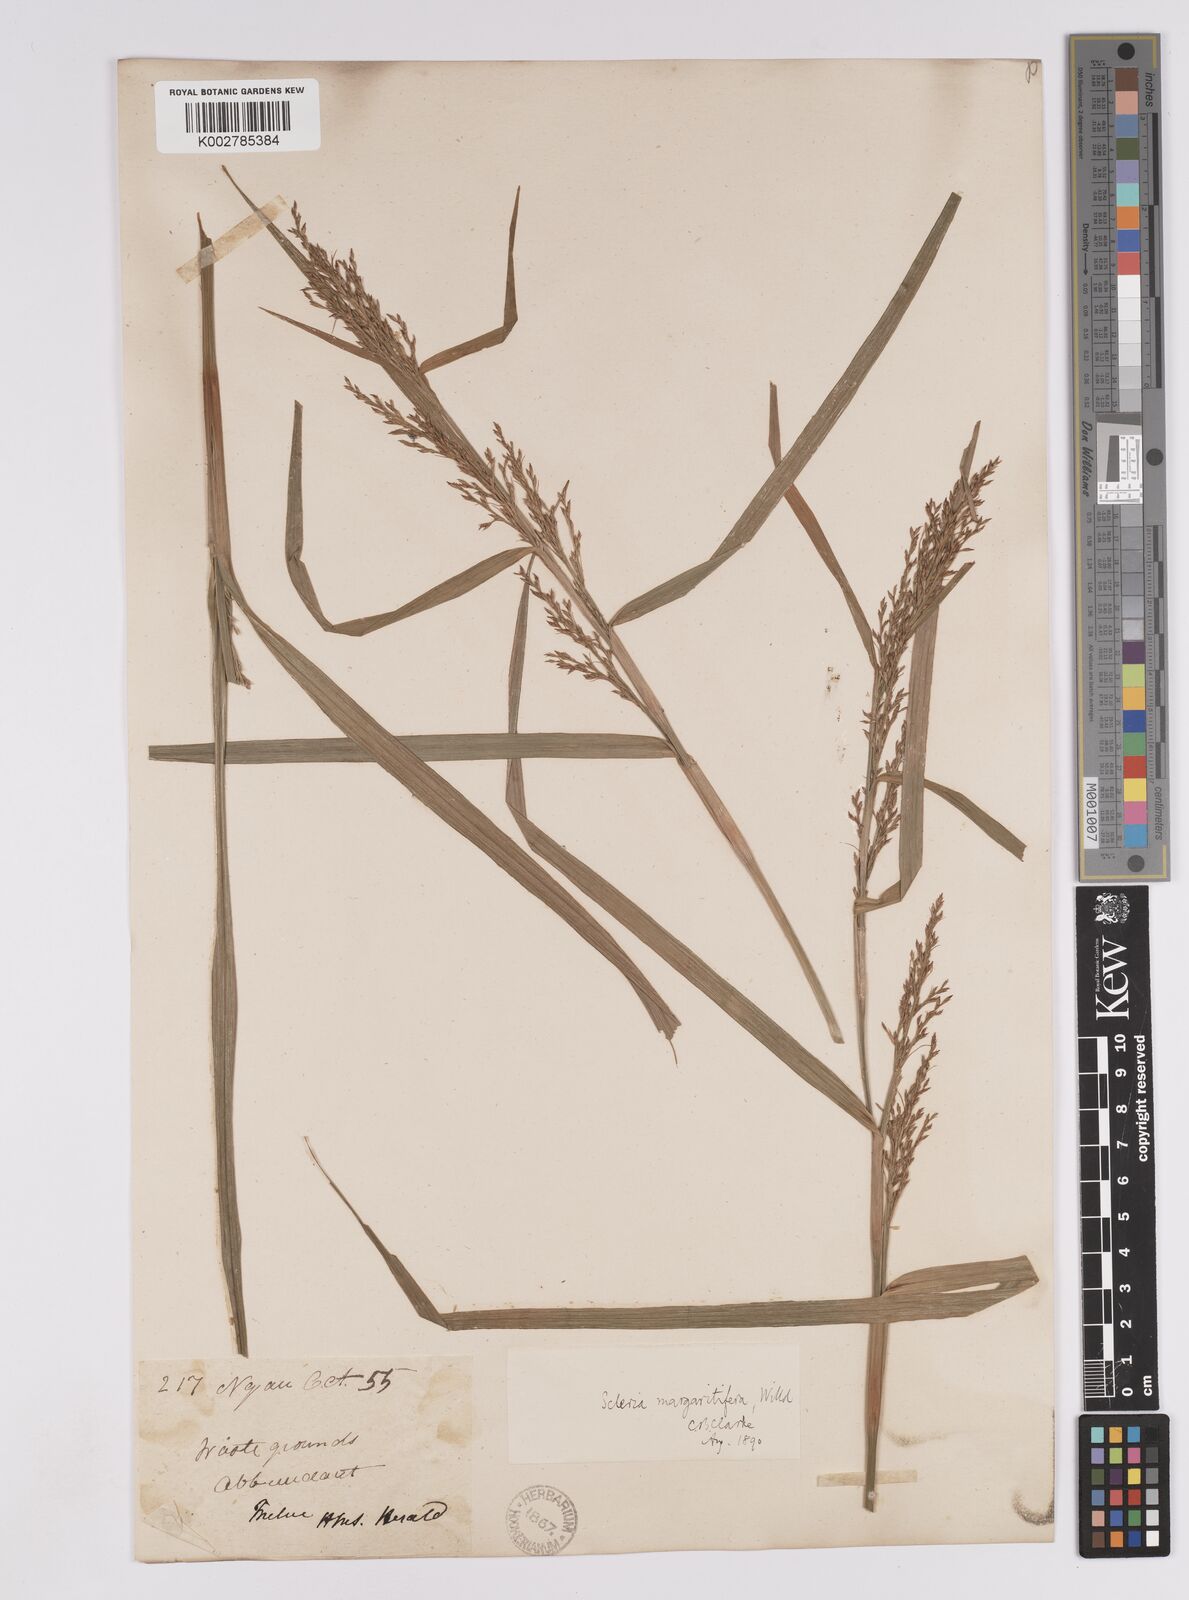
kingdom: Plantae
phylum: Tracheophyta
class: Liliopsida
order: Poales
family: Cyperaceae
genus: Scleria
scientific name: Scleria polycarpa
